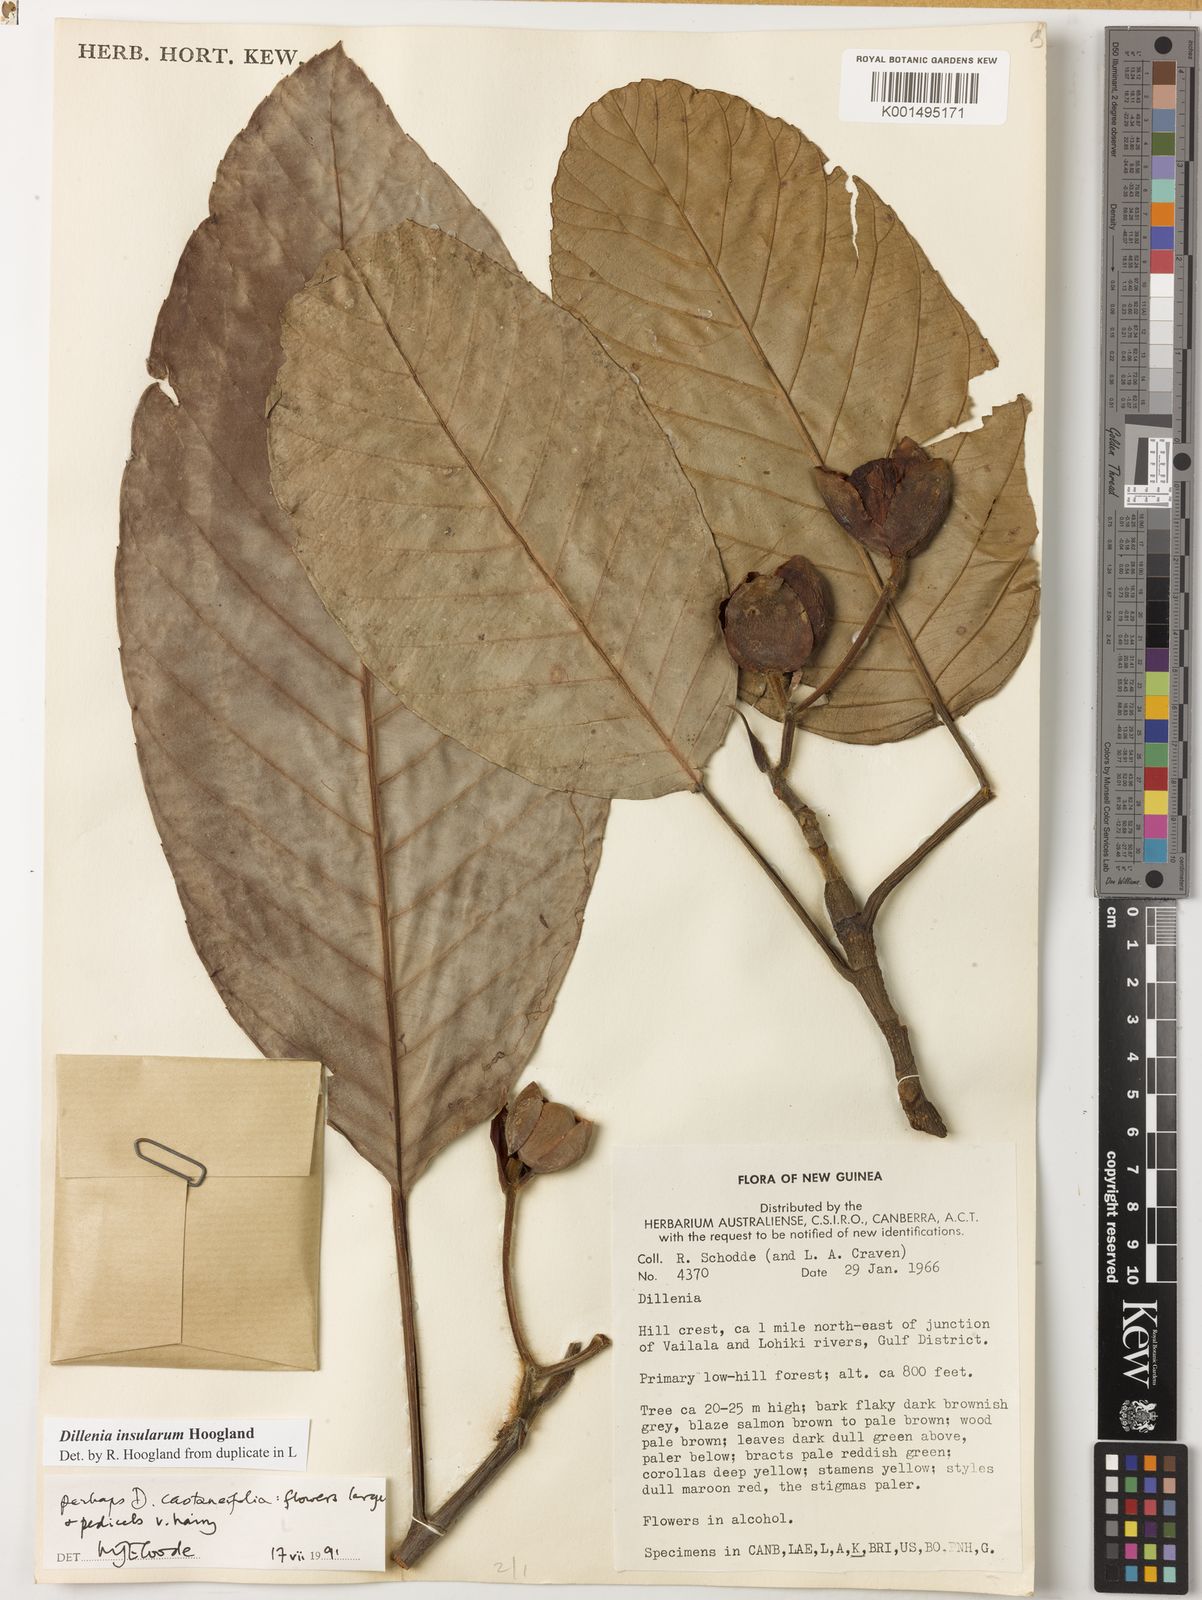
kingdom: Plantae
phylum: Tracheophyta
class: Magnoliopsida
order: Dilleniales
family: Dilleniaceae
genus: Dillenia
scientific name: Dillenia insularum
